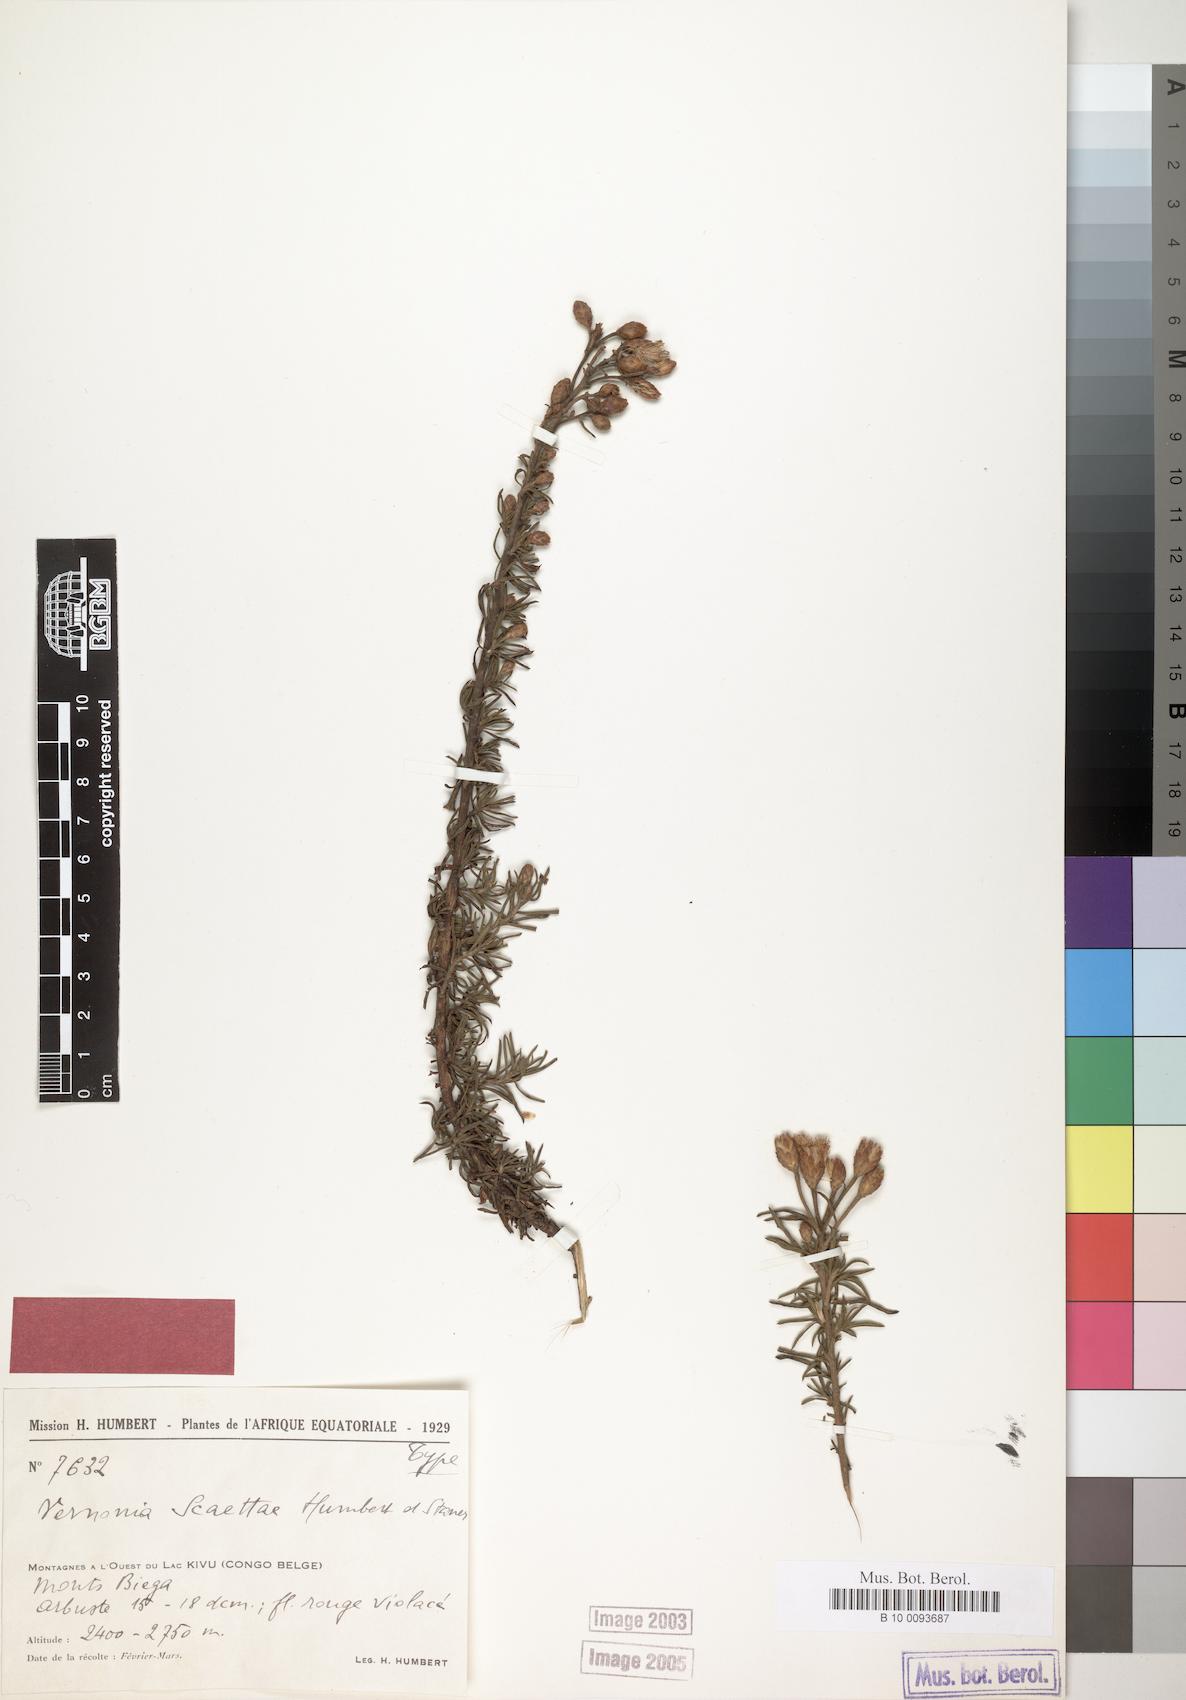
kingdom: Plantae
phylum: Tracheophyta
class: Magnoliopsida
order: Asterales
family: Asteraceae
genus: Vernonia
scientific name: Vernonia scaettae
